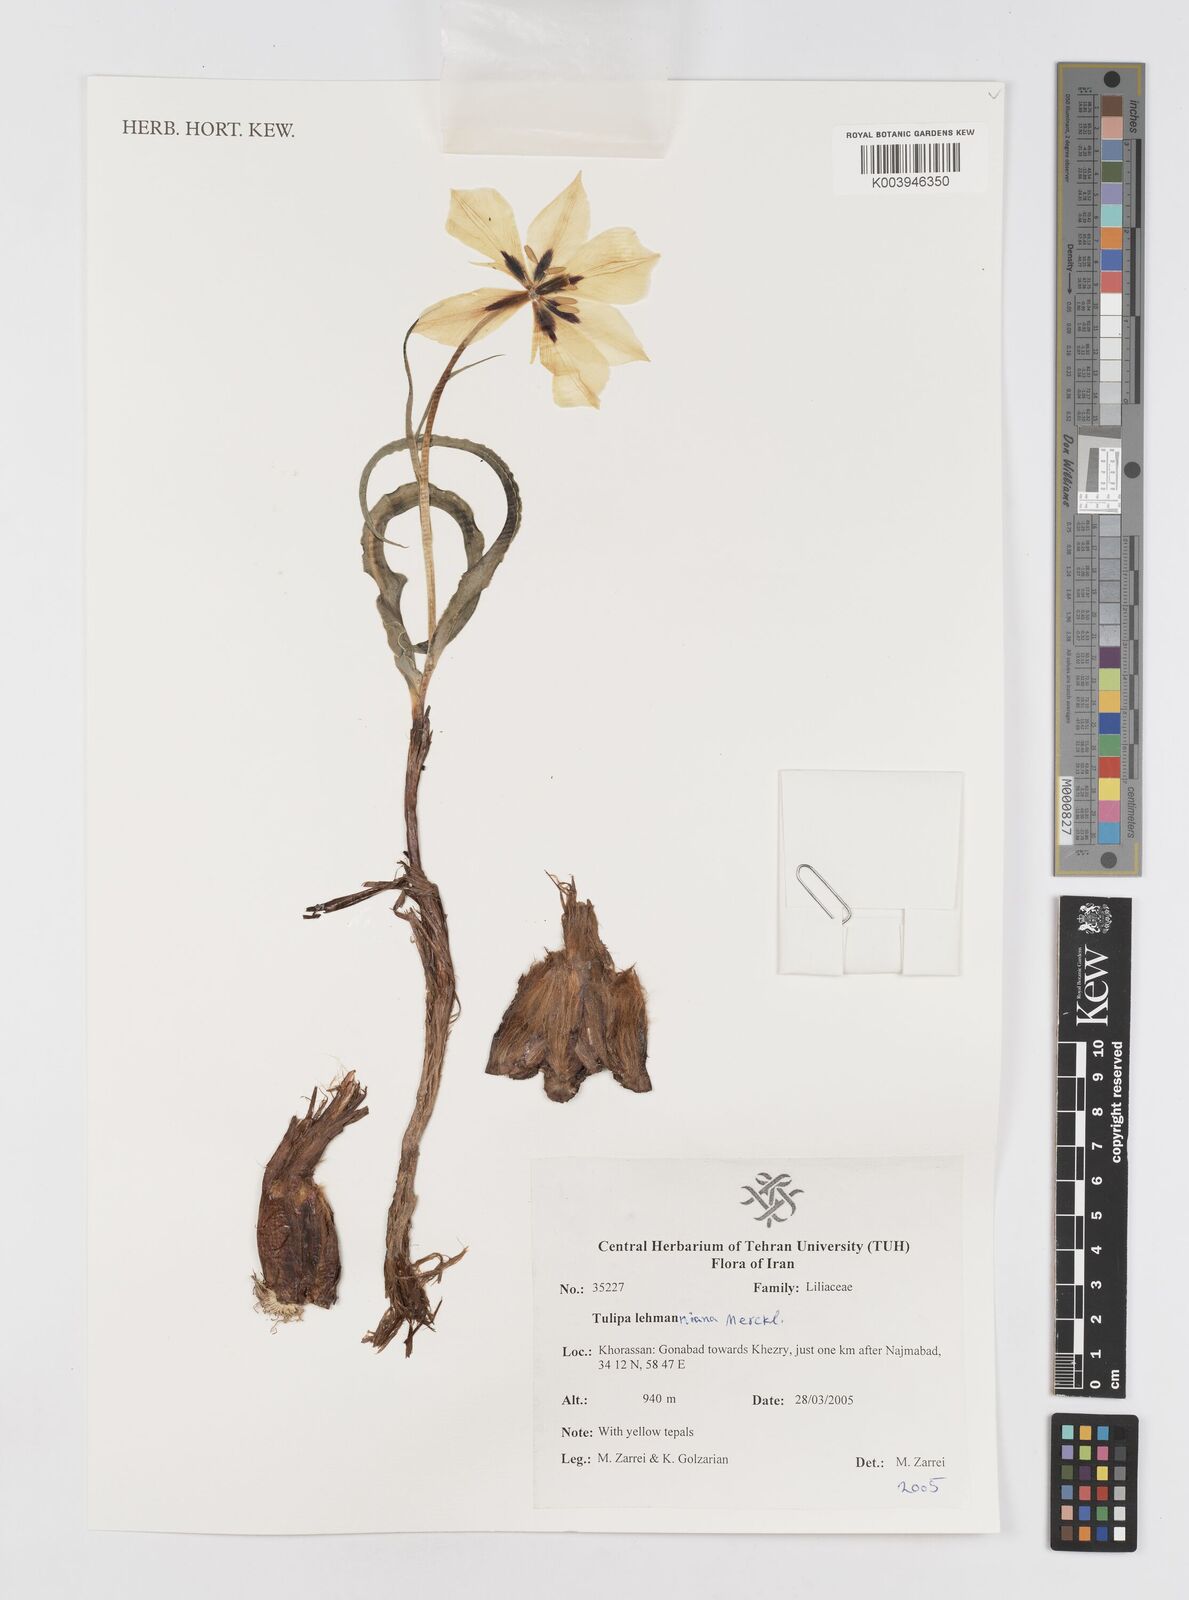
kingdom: Plantae
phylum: Tracheophyta
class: Liliopsida
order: Liliales
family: Liliaceae
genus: Tulipa
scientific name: Tulipa lehmanniana
